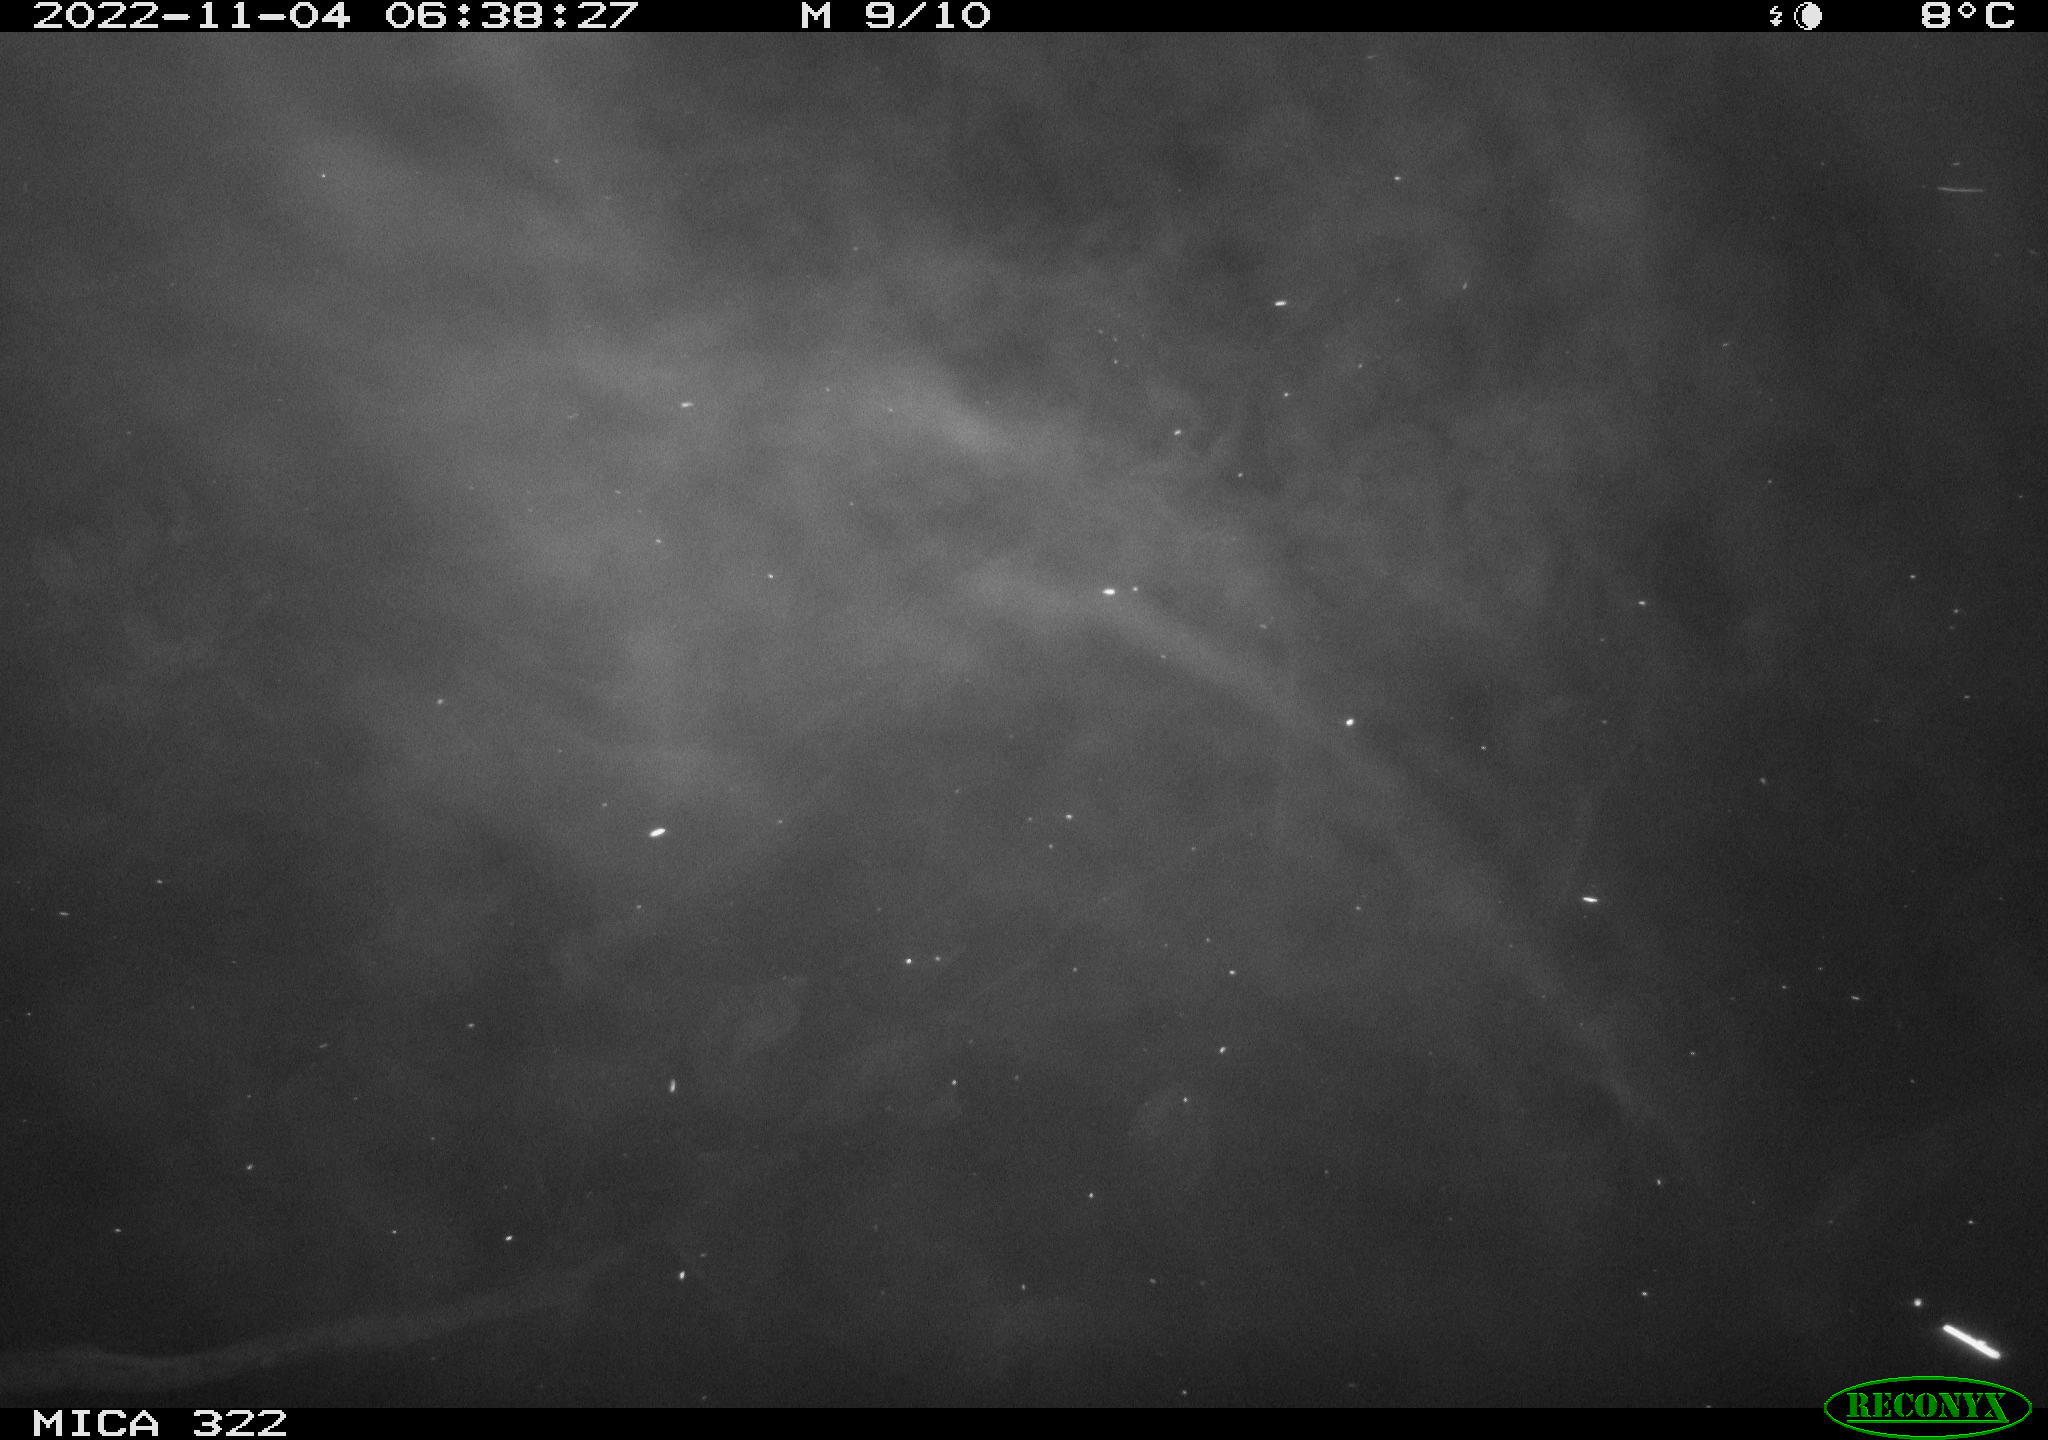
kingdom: Animalia
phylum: Chordata
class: Mammalia
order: Rodentia
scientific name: Rodentia
